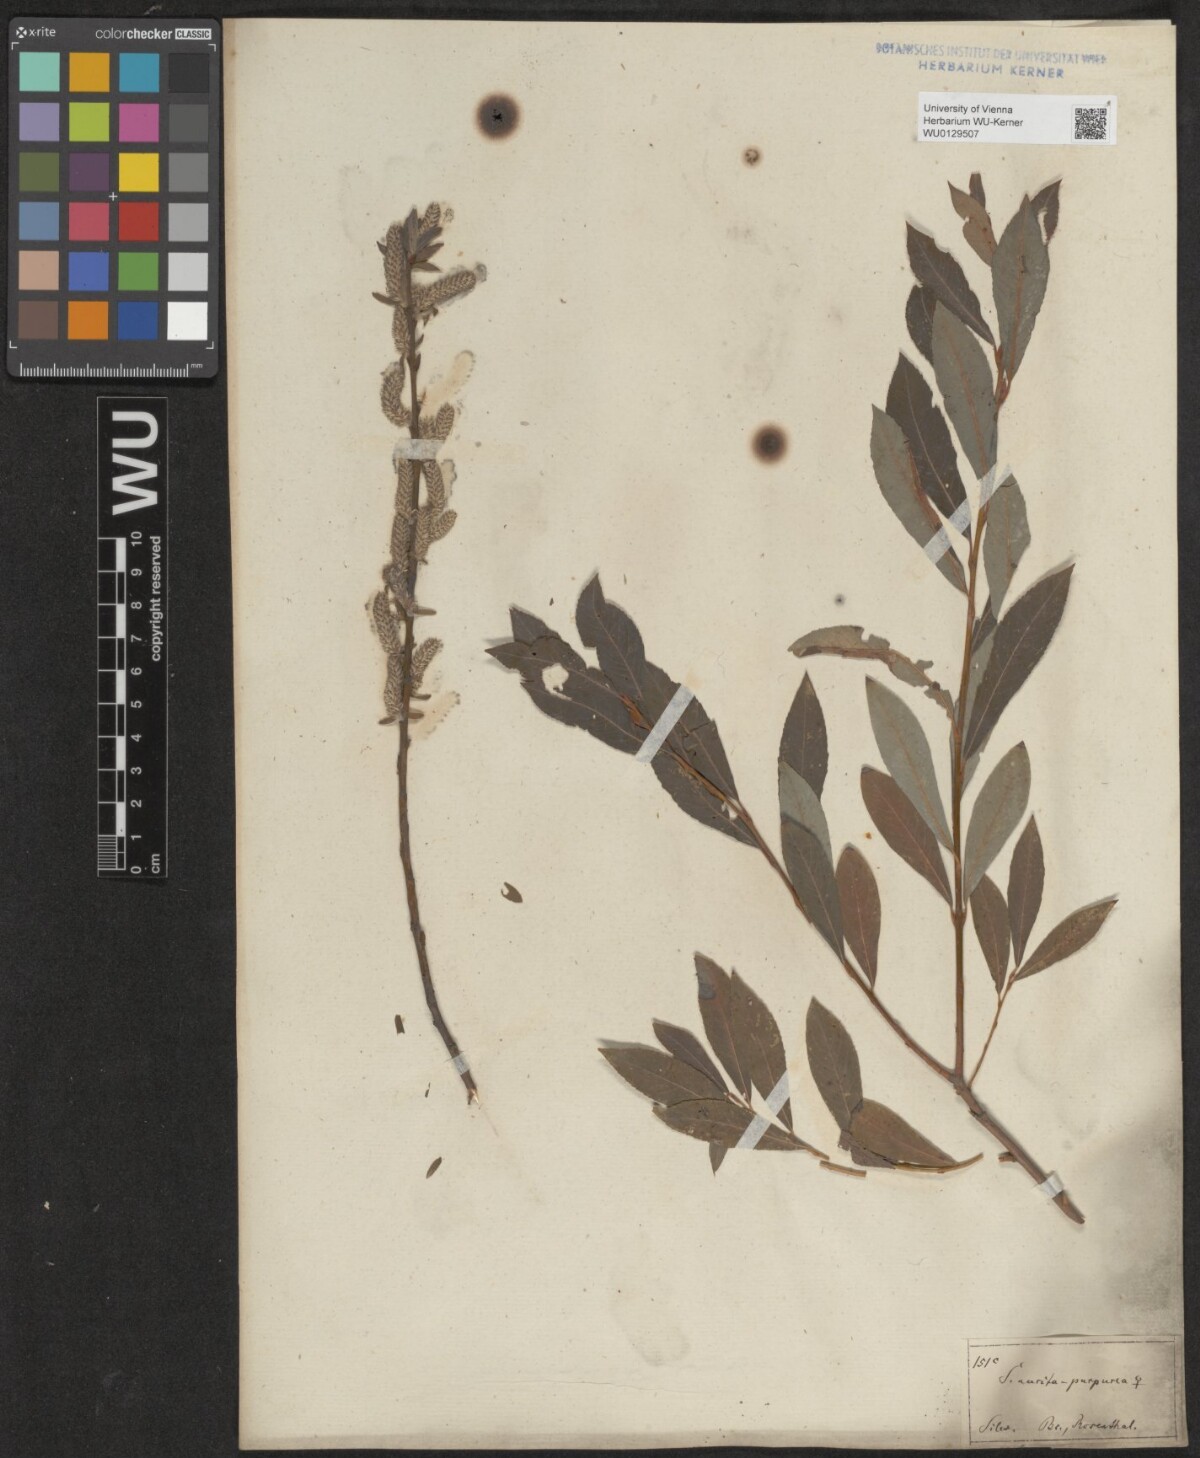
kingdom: Plantae
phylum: Tracheophyta
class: Magnoliopsida
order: Malpighiales
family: Salicaceae
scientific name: Salicaceae
